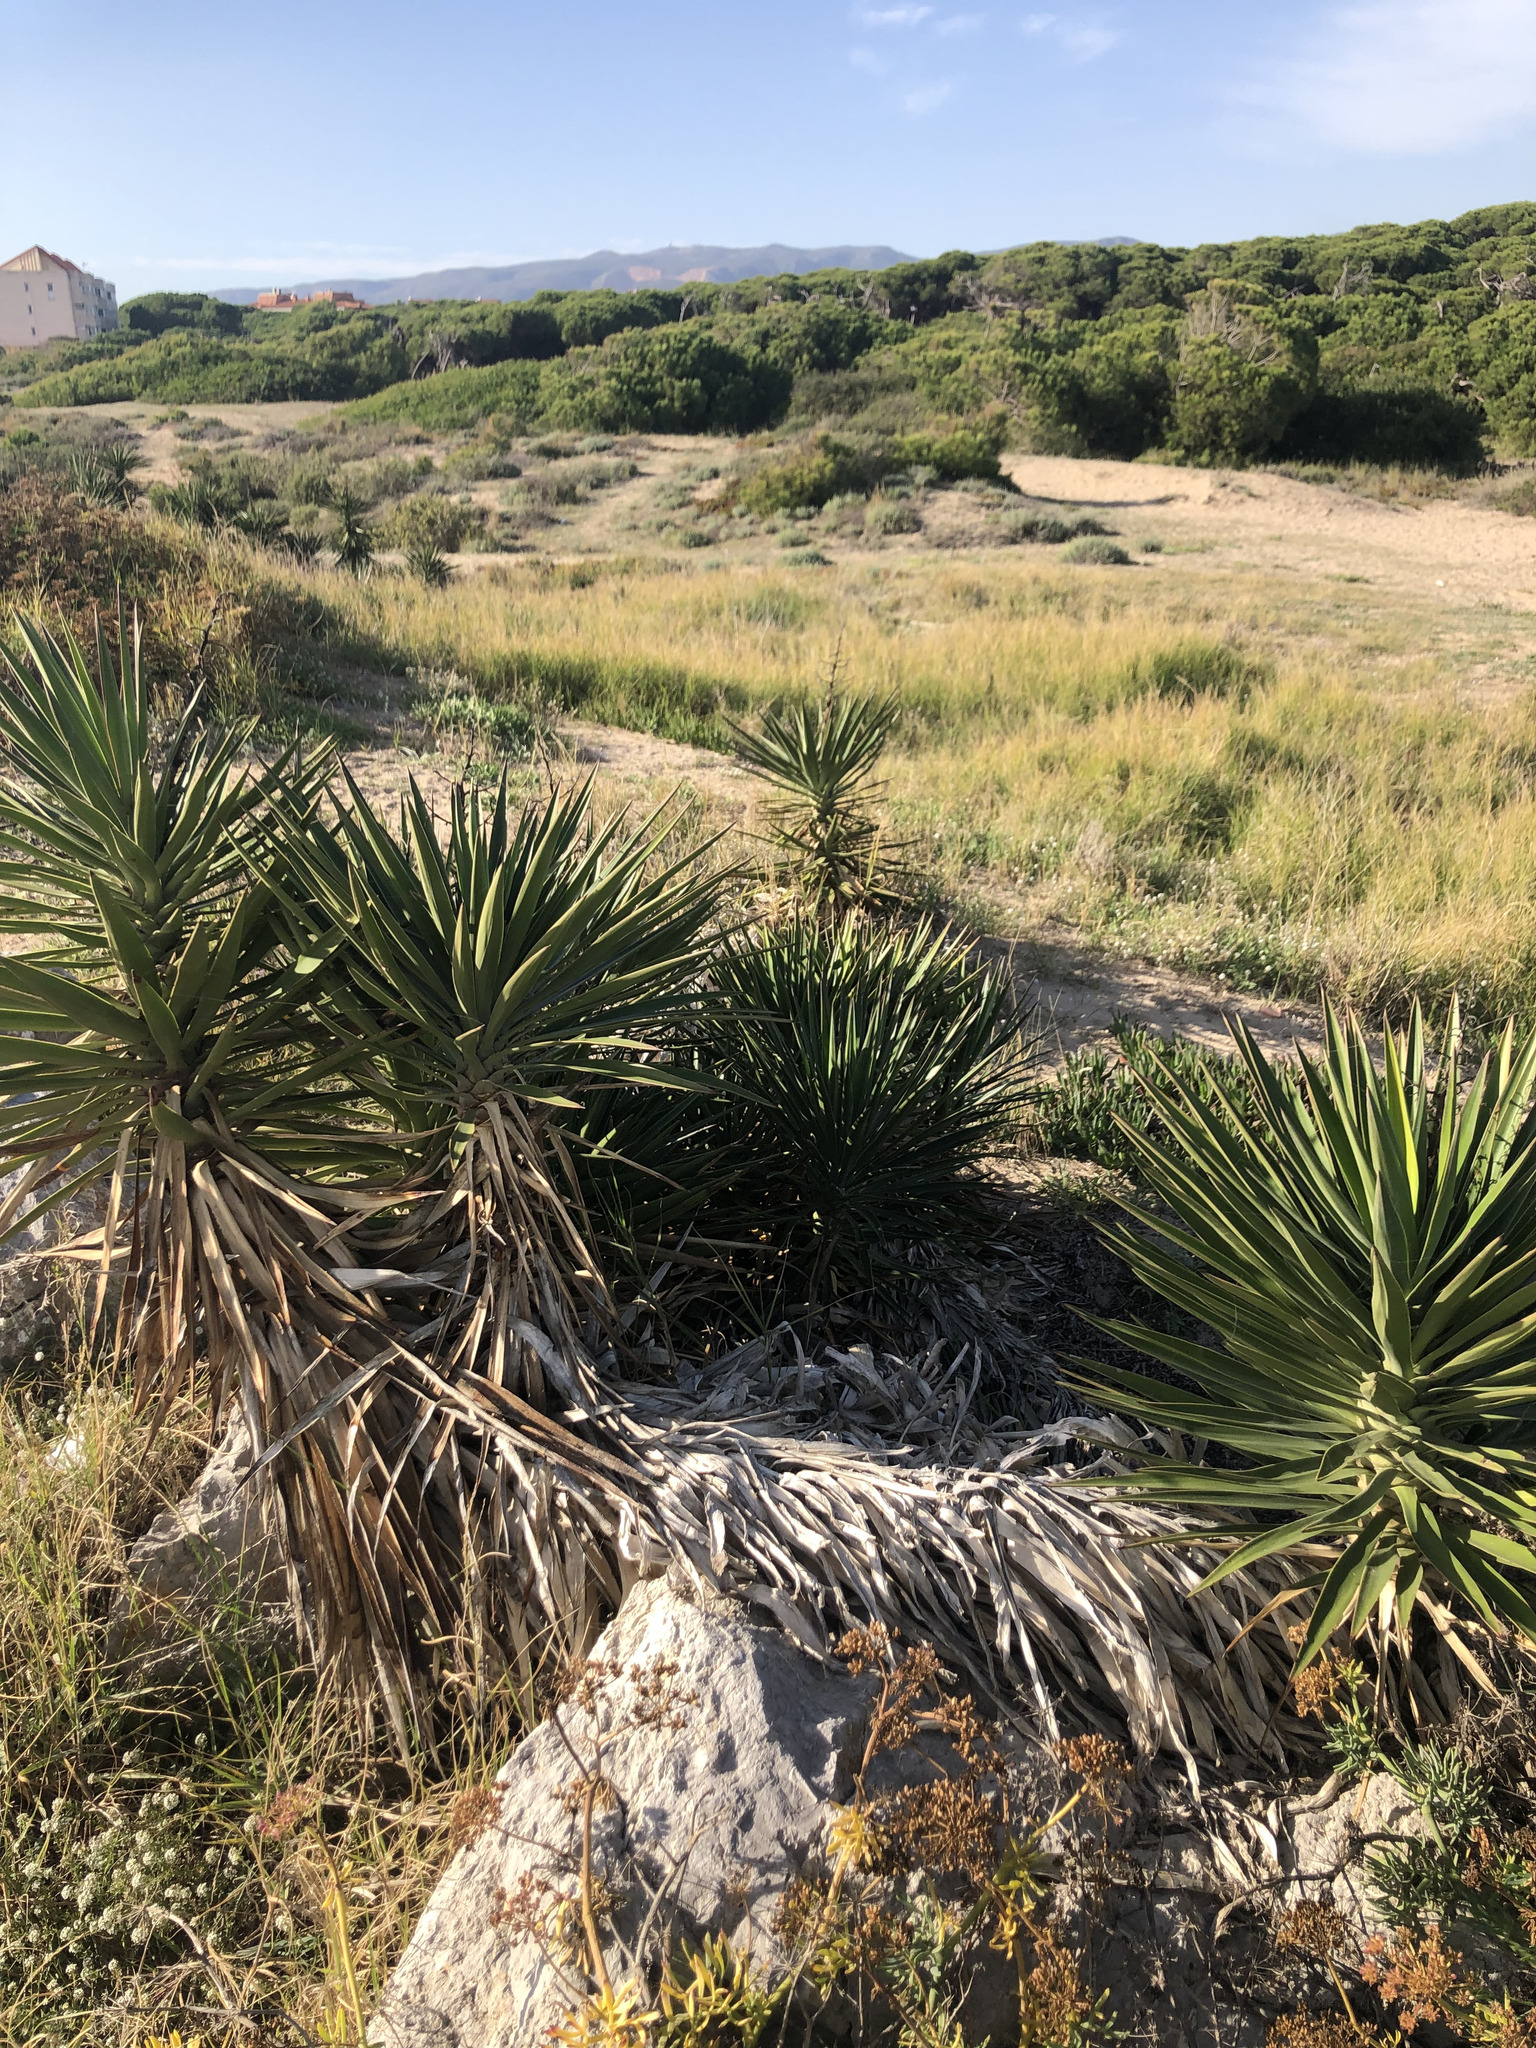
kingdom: Plantae
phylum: Tracheophyta
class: Liliopsida
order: Asparagales
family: Asparagaceae
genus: Yucca
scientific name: Yucca aloifolia
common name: Aloe yucca
